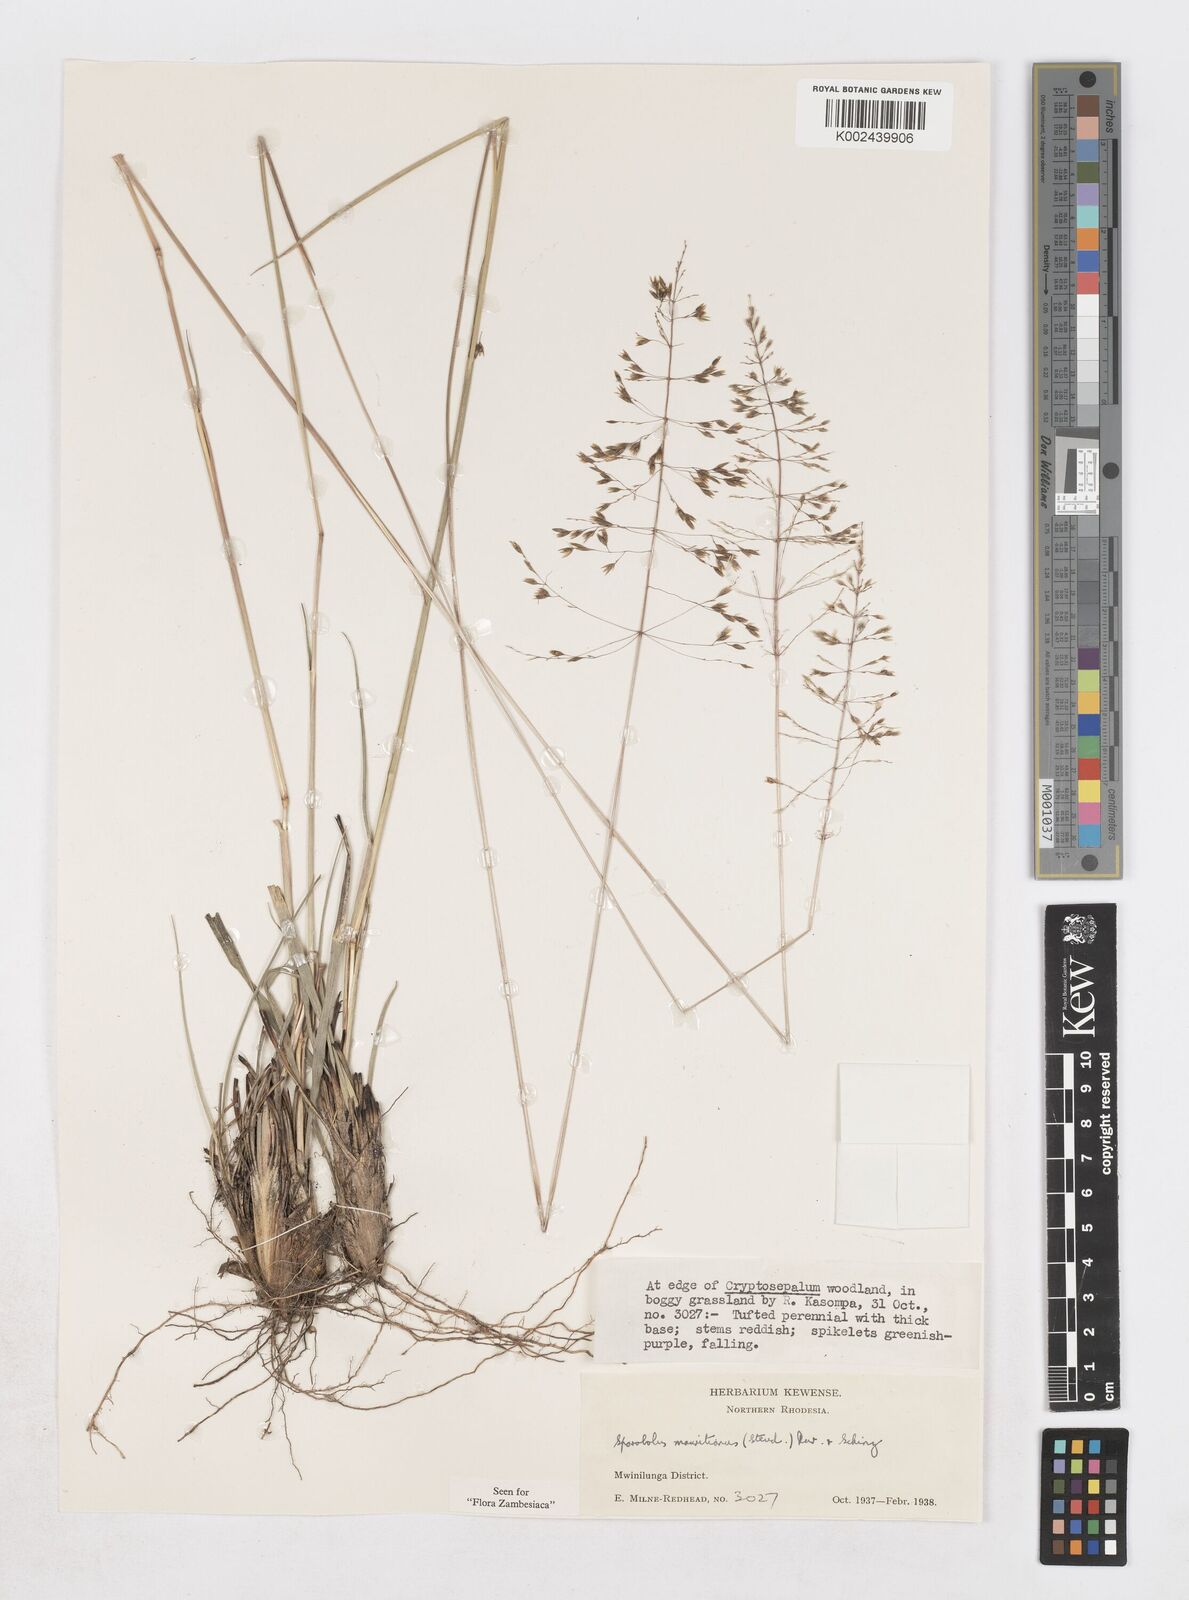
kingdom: Plantae
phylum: Tracheophyta
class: Liliopsida
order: Poales
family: Poaceae
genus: Sporobolus
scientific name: Sporobolus subulatus
